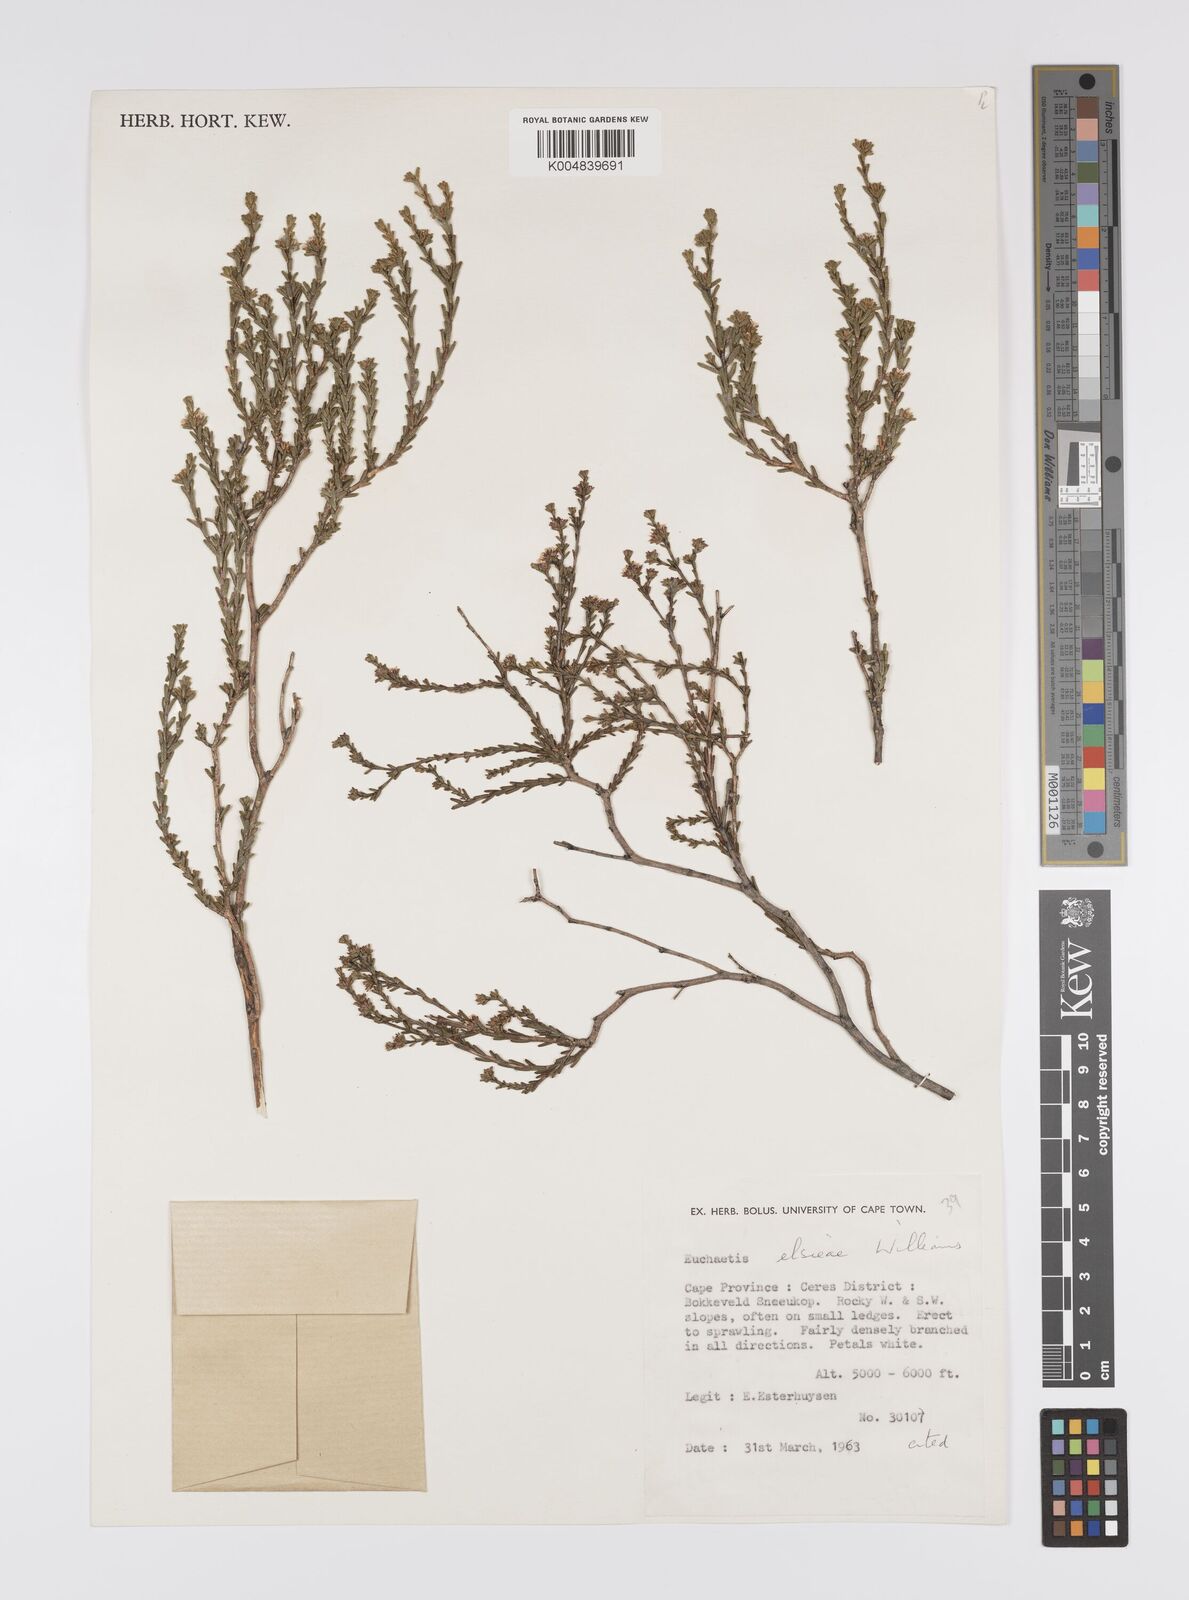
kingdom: Plantae
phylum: Tracheophyta
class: Magnoliopsida
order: Sapindales
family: Rutaceae
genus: Euchaetis
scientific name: Euchaetis elsieae
